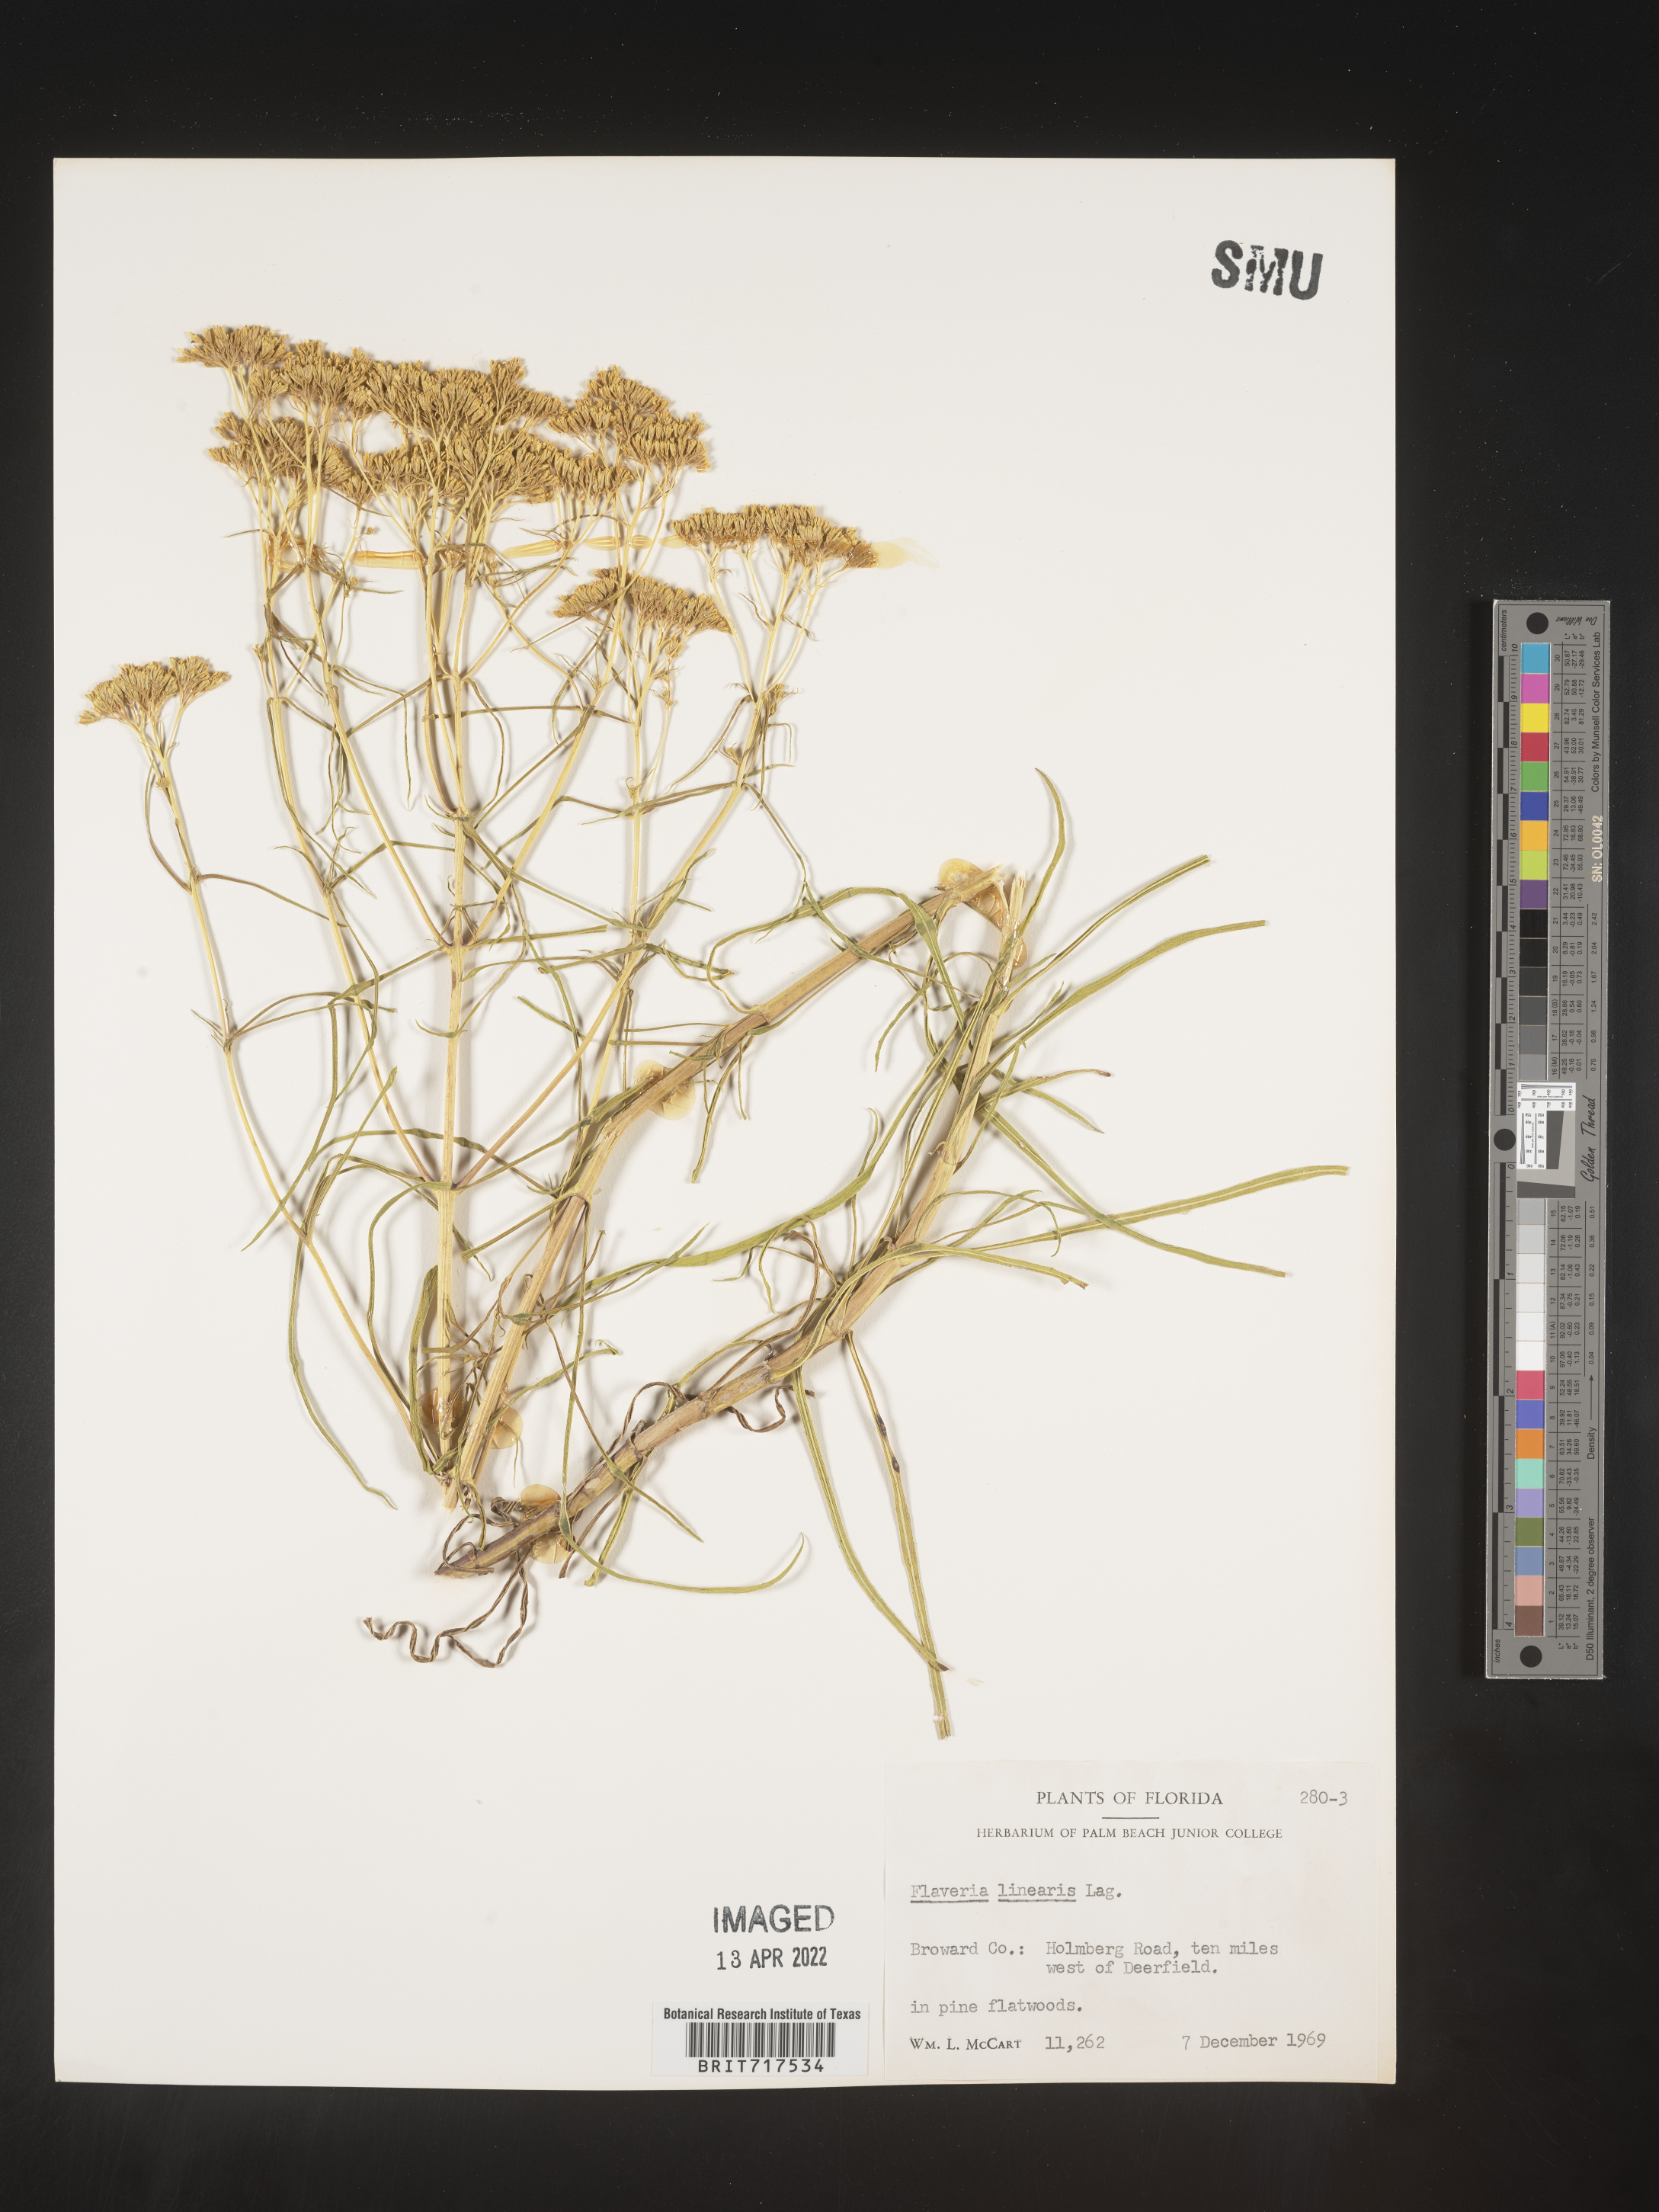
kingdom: Plantae
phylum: Tracheophyta
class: Magnoliopsida
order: Asterales
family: Asteraceae
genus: Flaveria
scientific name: Flaveria linearis
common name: Yellowtop
